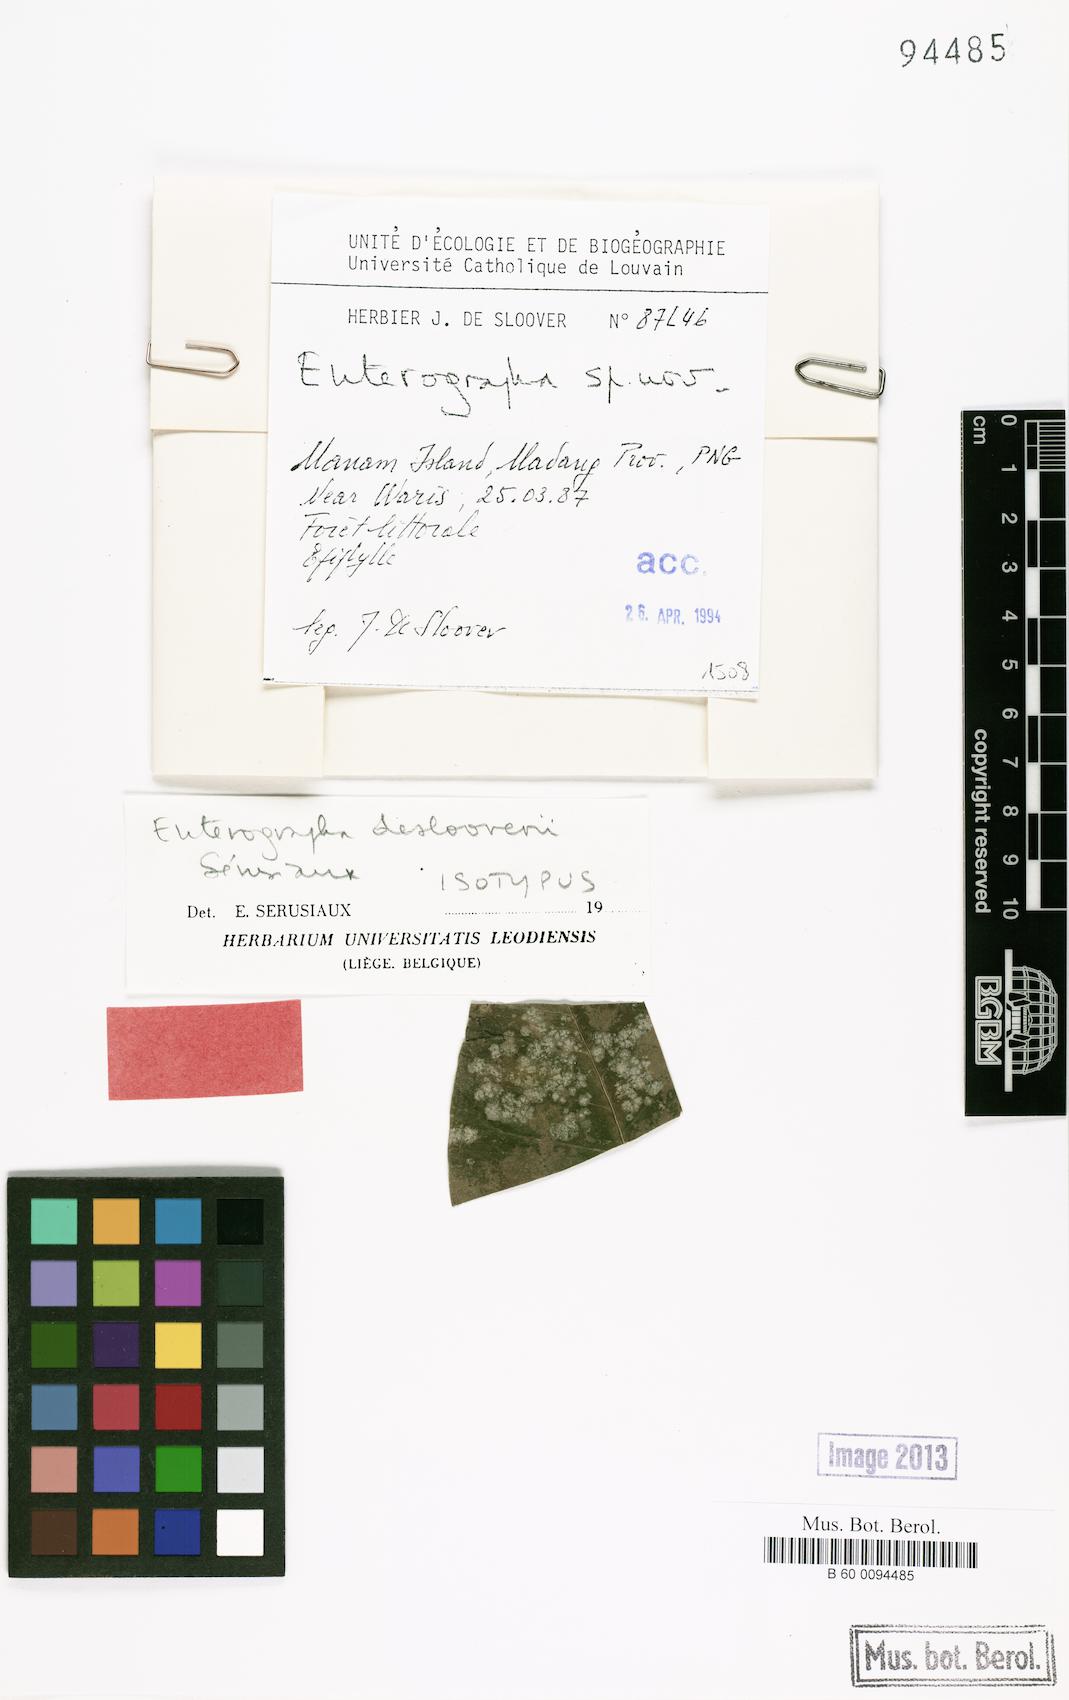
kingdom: Fungi
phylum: Ascomycota
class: Arthoniomycetes
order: Arthoniales
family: Roccellaceae
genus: Enterographa
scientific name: Enterographa deslooveri
